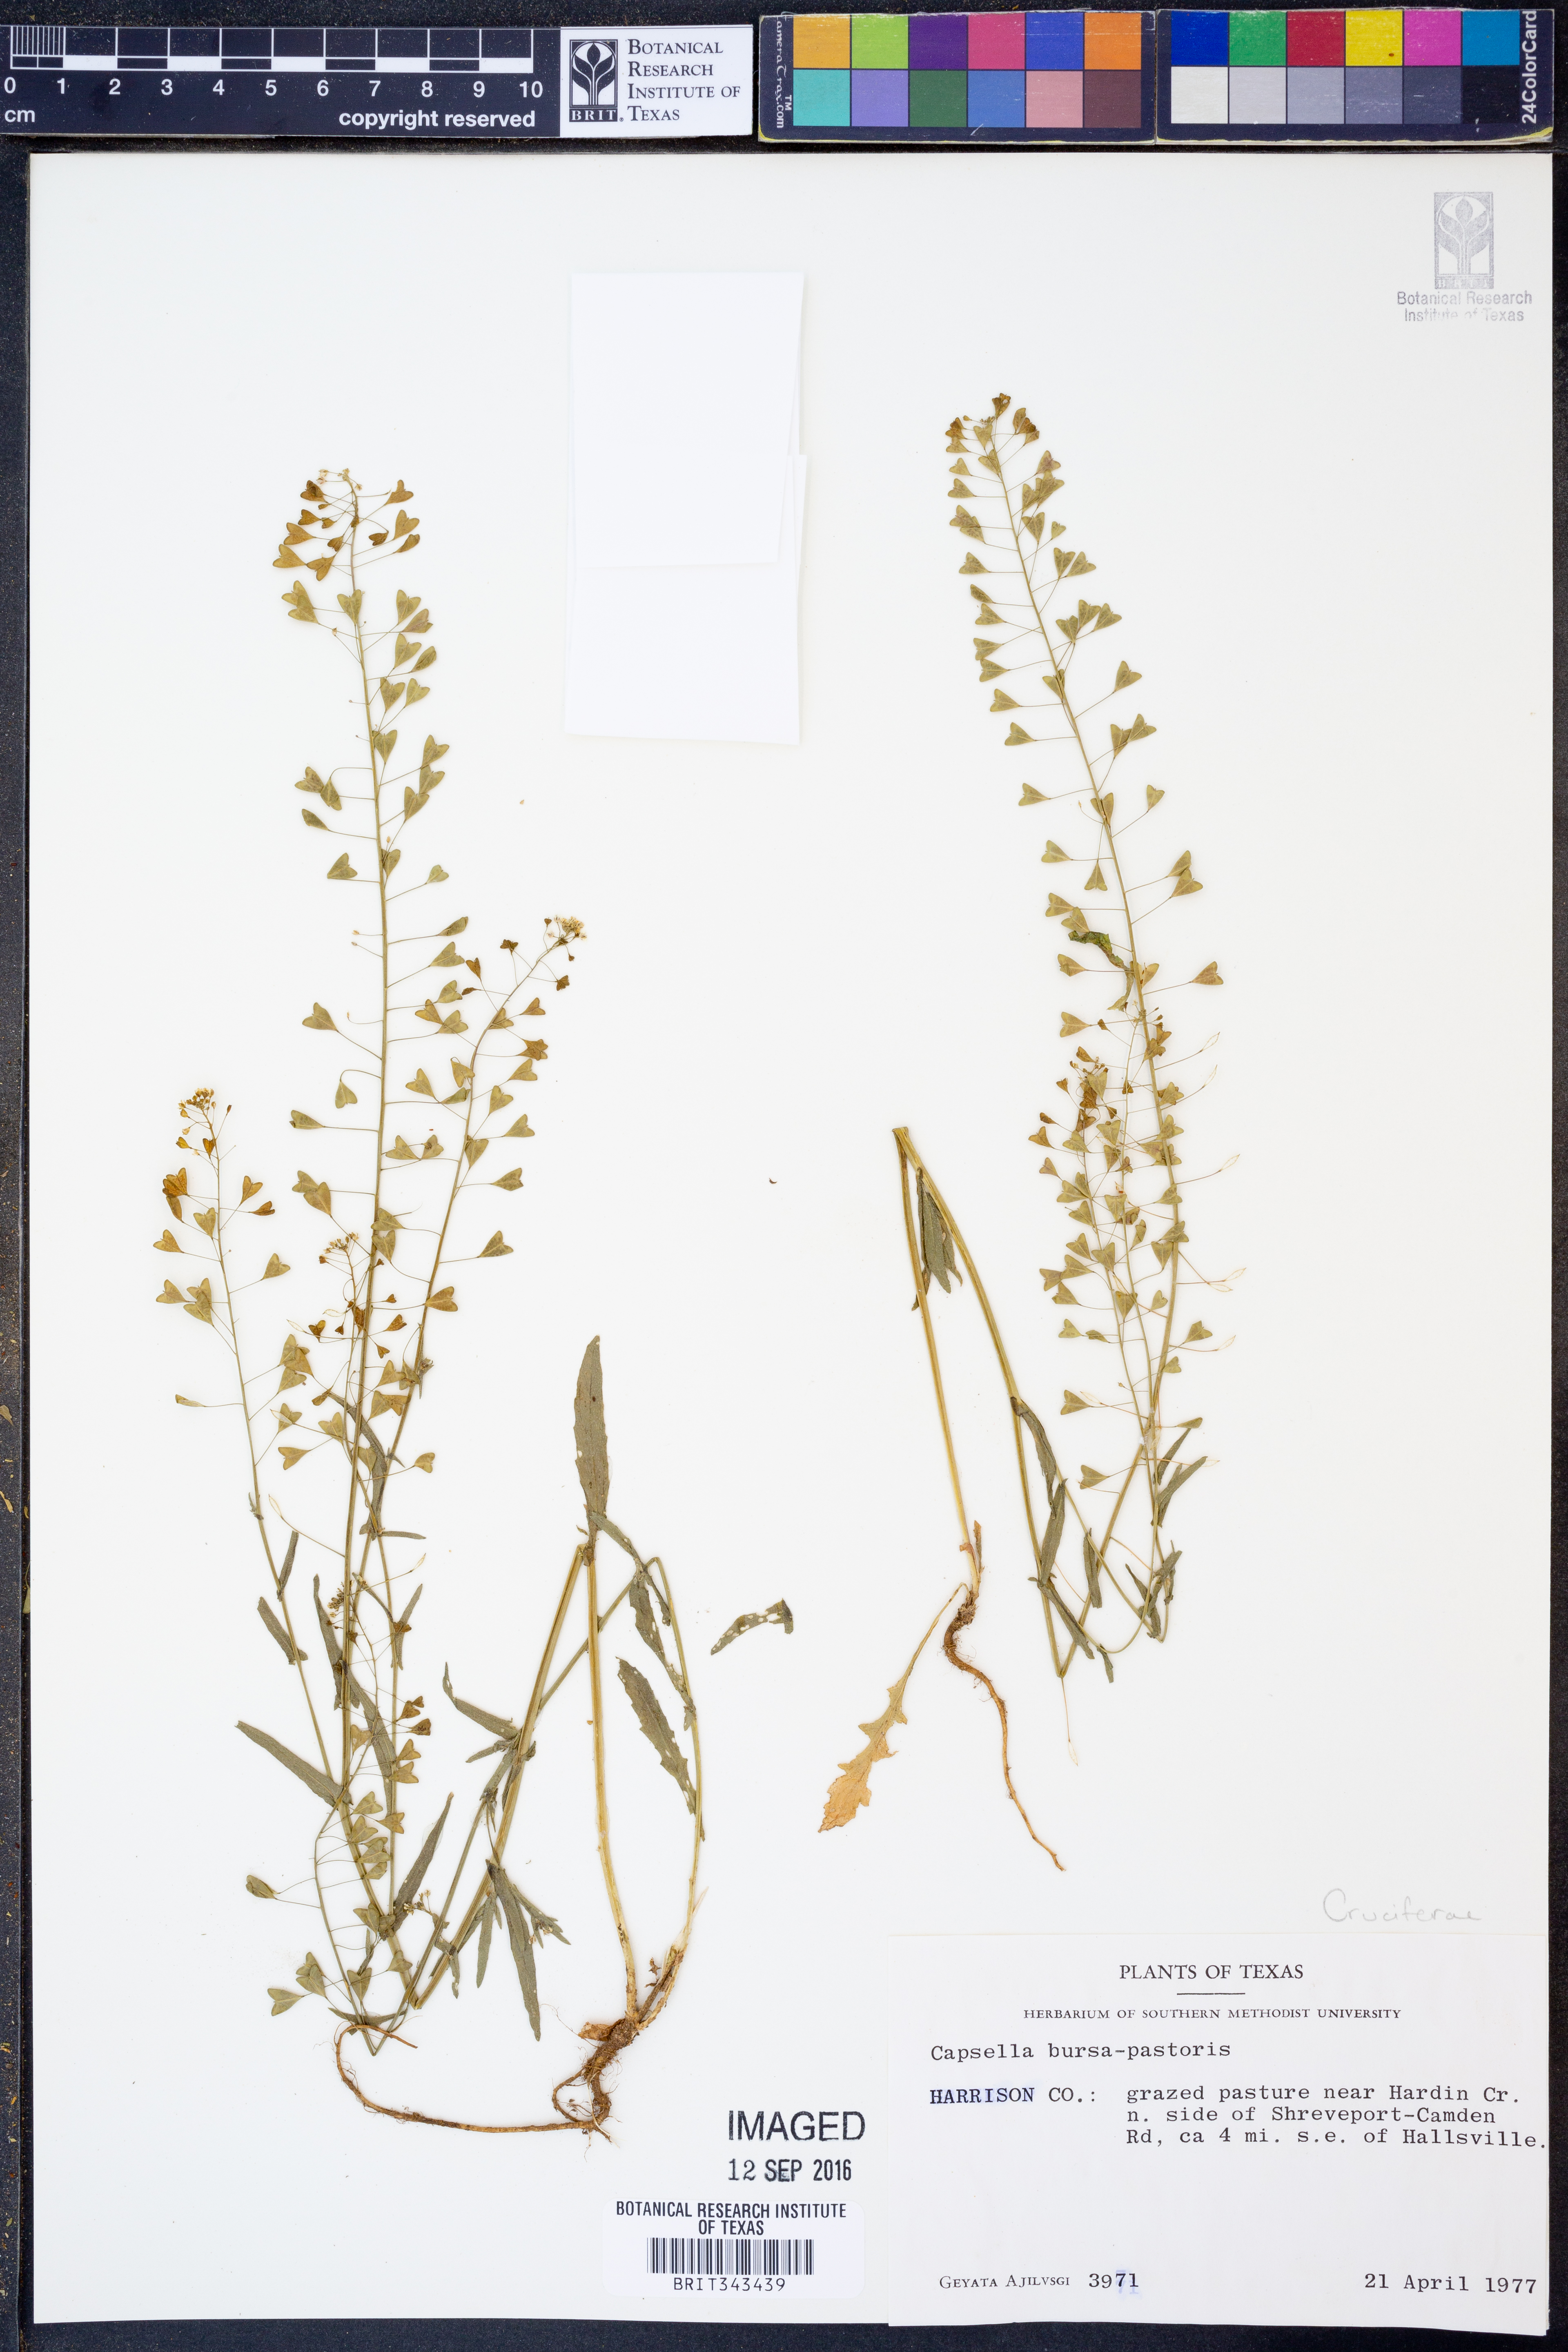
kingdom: Plantae
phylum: Tracheophyta
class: Magnoliopsida
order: Brassicales
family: Brassicaceae
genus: Capsella
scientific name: Capsella bursa-pastoris
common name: Shepherd's purse
